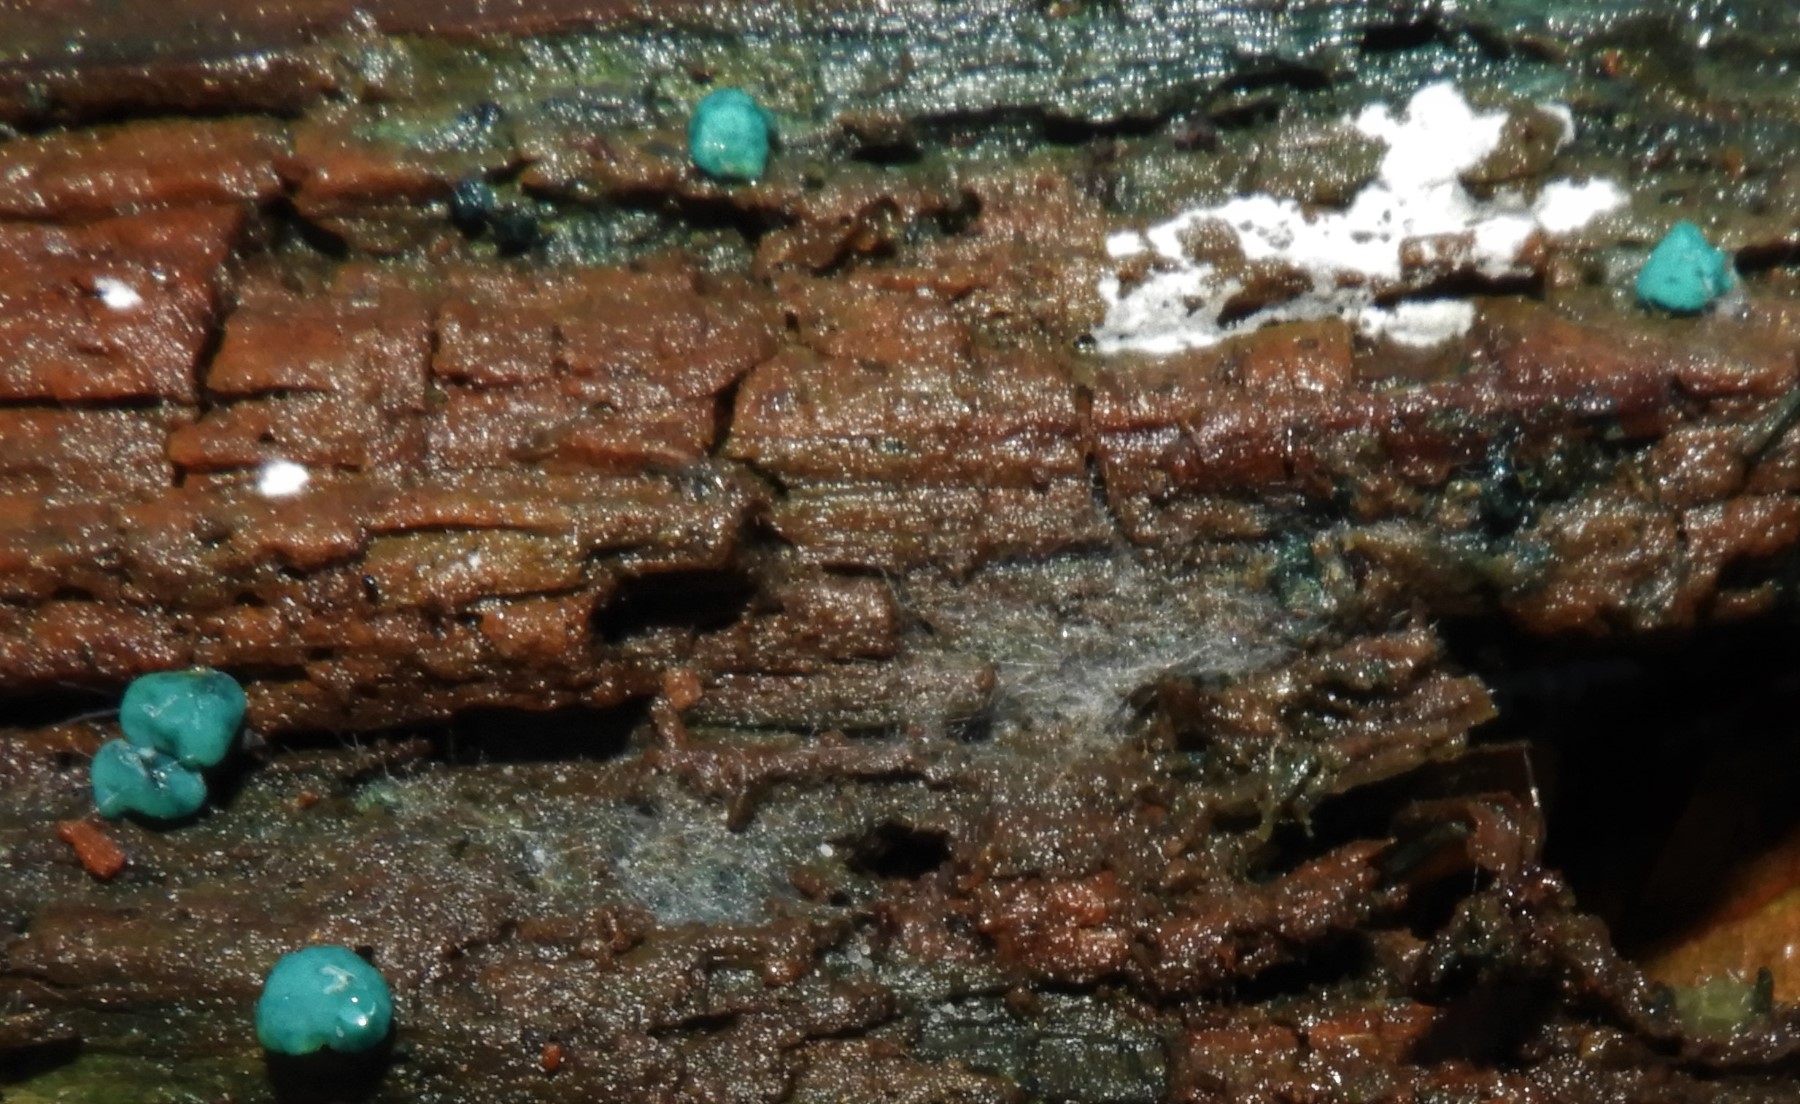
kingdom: Fungi
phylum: Ascomycota
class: Leotiomycetes
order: Helotiales
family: Chlorociboriaceae
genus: Chlorociboria
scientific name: Chlorociboria aeruginascens
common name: almindelig grønskive
